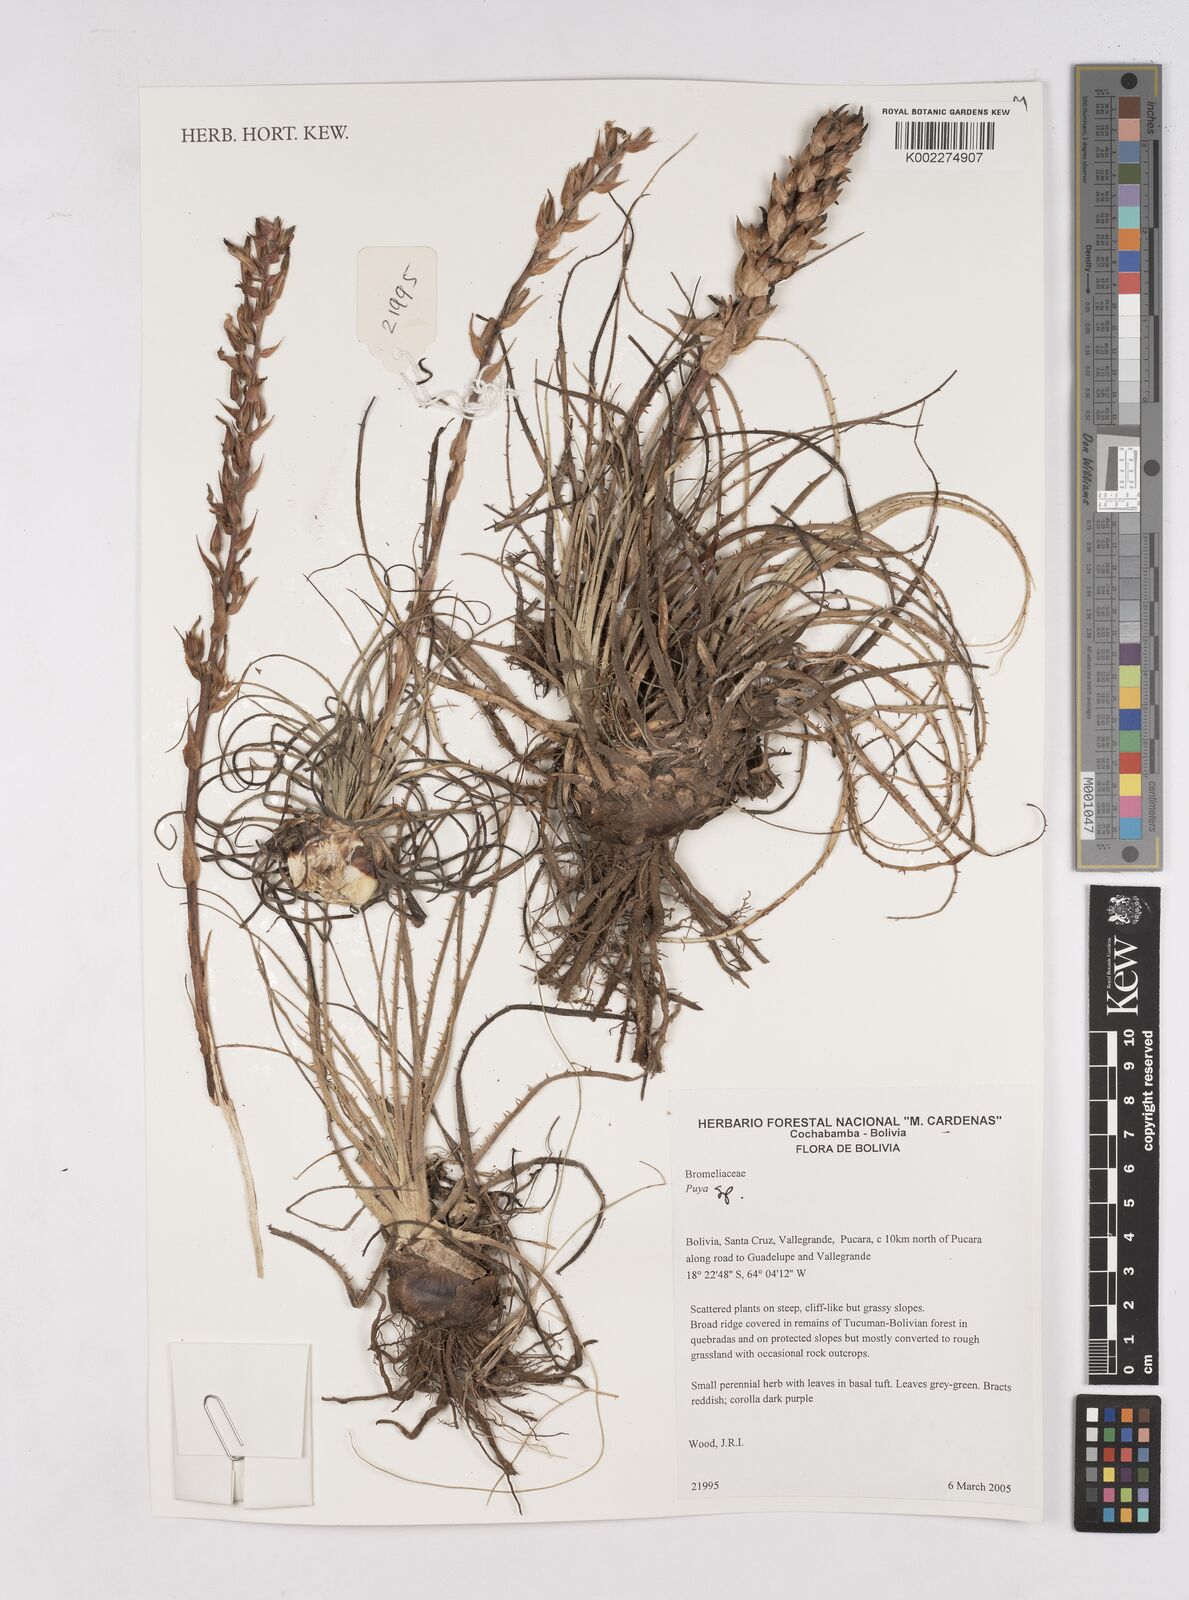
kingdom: Plantae
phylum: Tracheophyta
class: Liliopsida
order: Poales
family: Bromeliaceae
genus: Puya
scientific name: Puya
